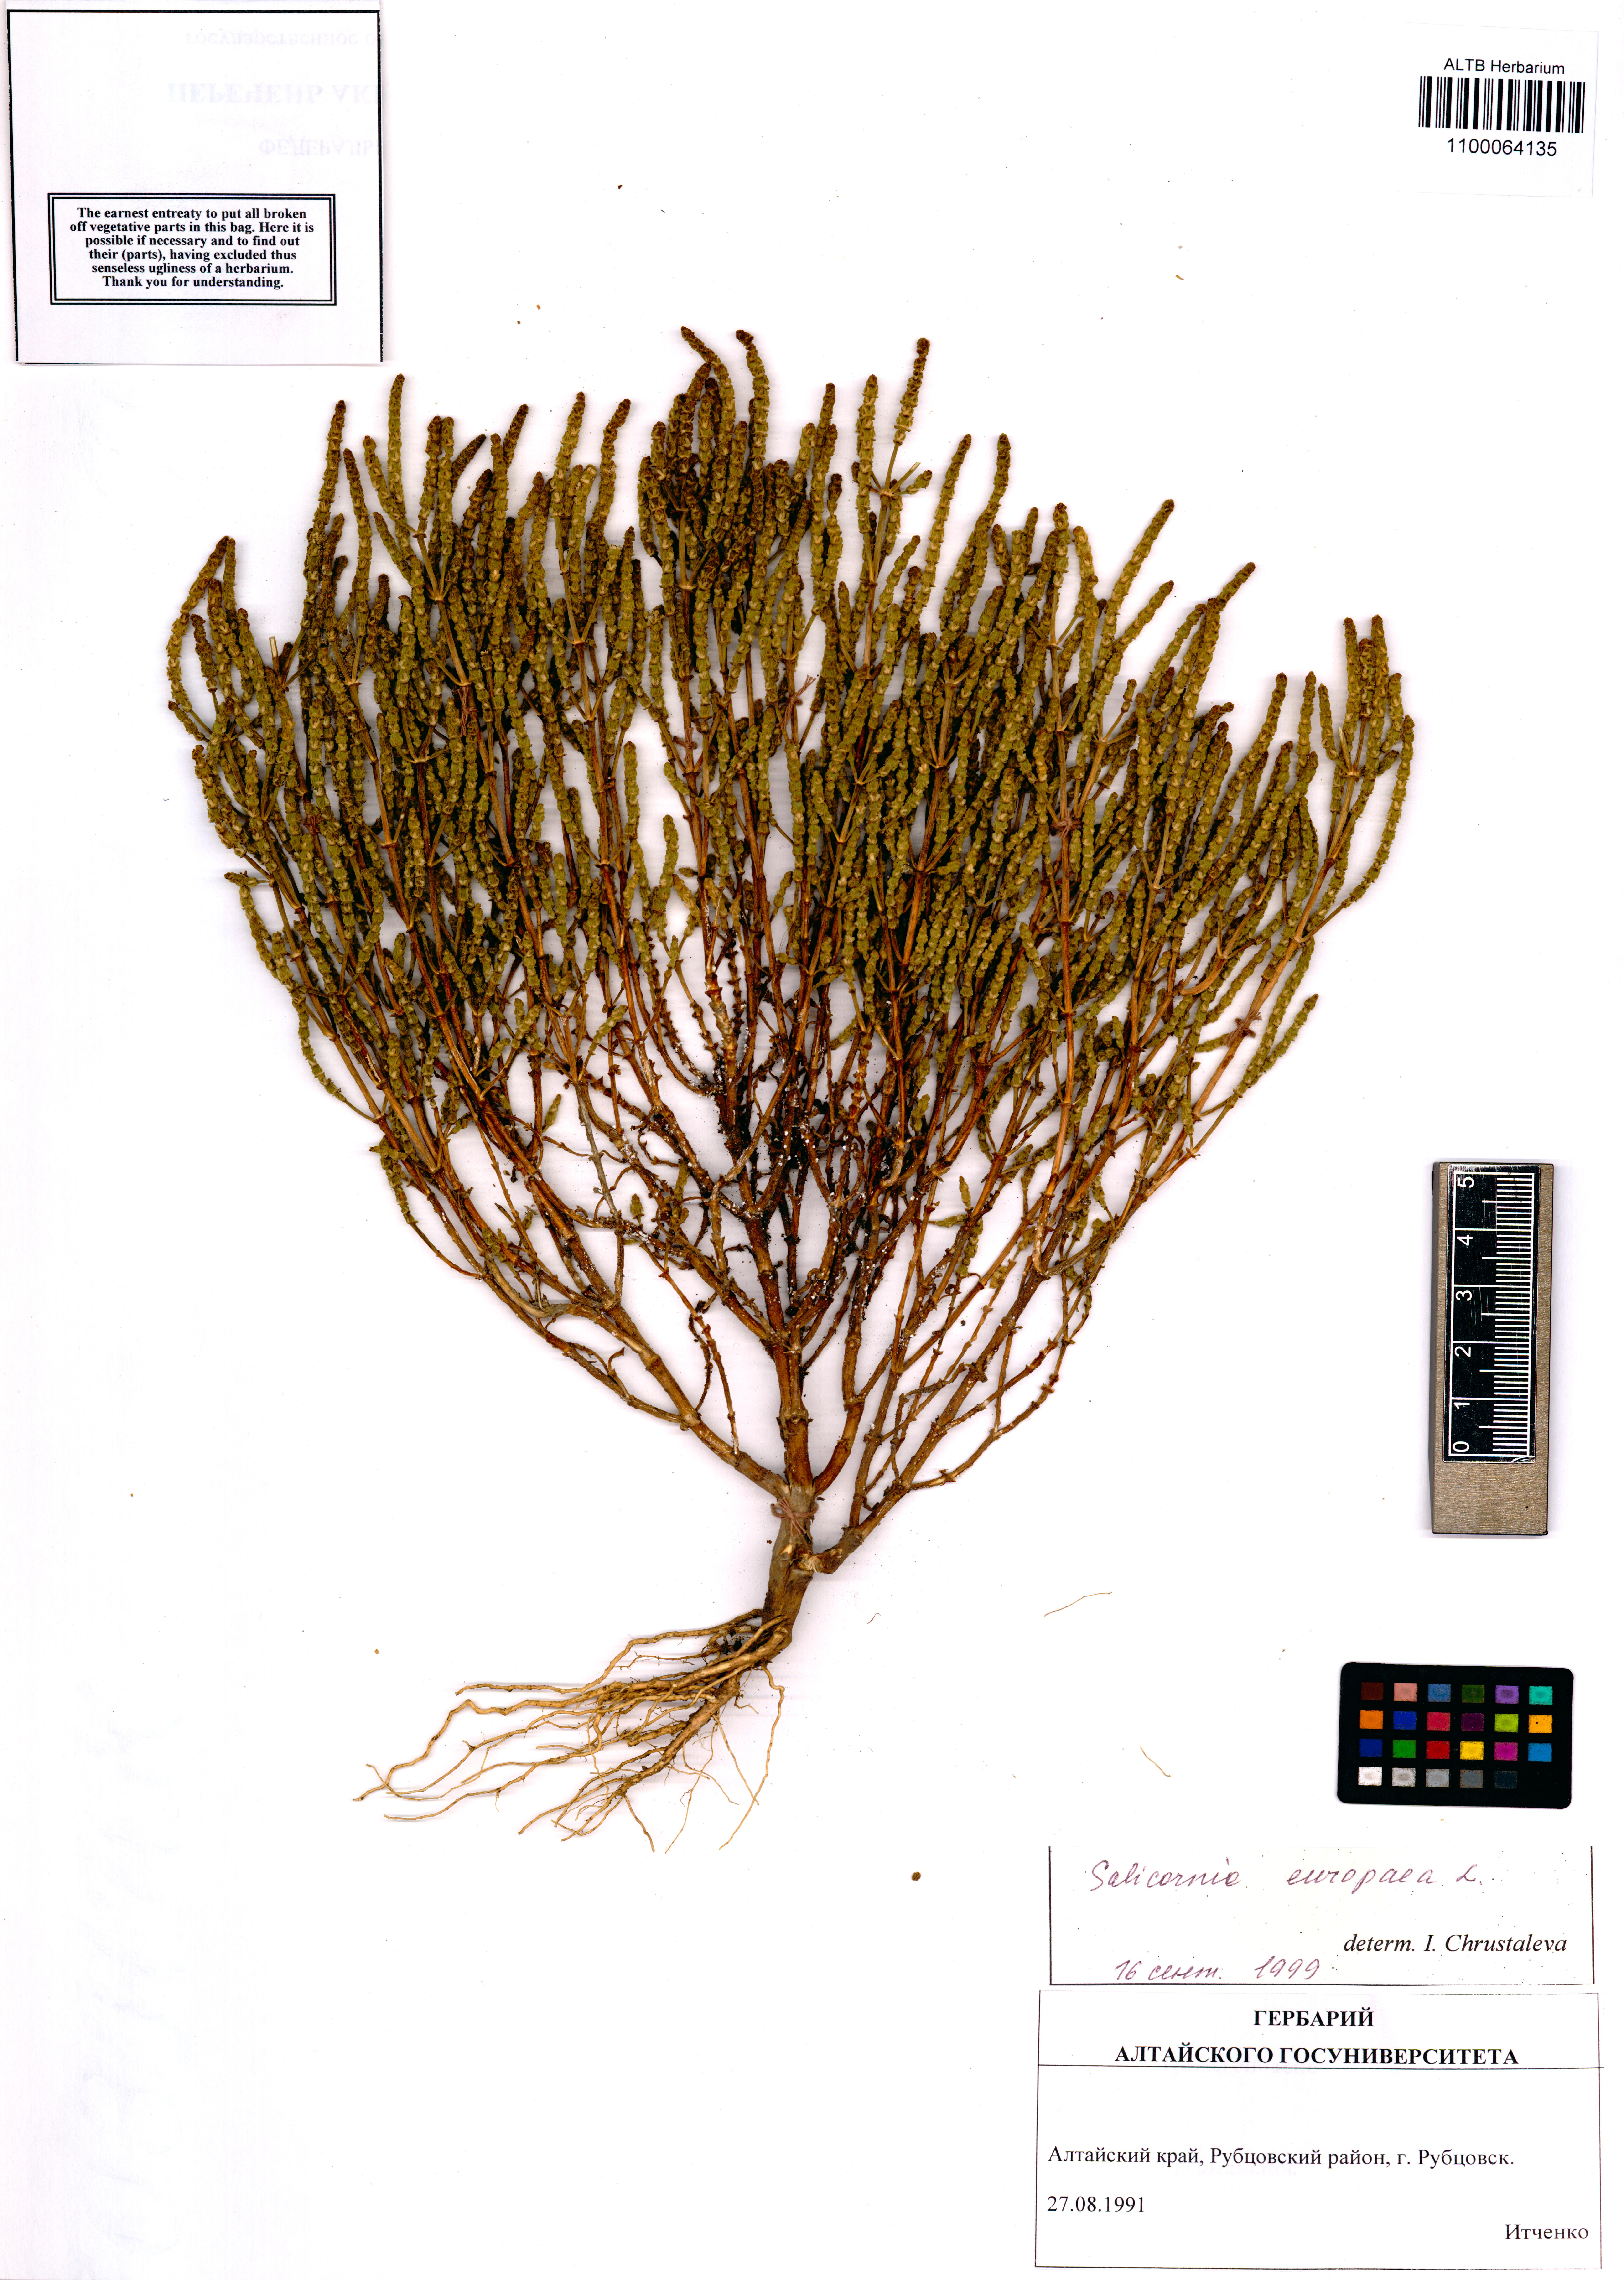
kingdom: Plantae
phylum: Tracheophyta
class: Magnoliopsida
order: Caryophyllales
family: Amaranthaceae
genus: Salicornia
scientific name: Salicornia europaea
